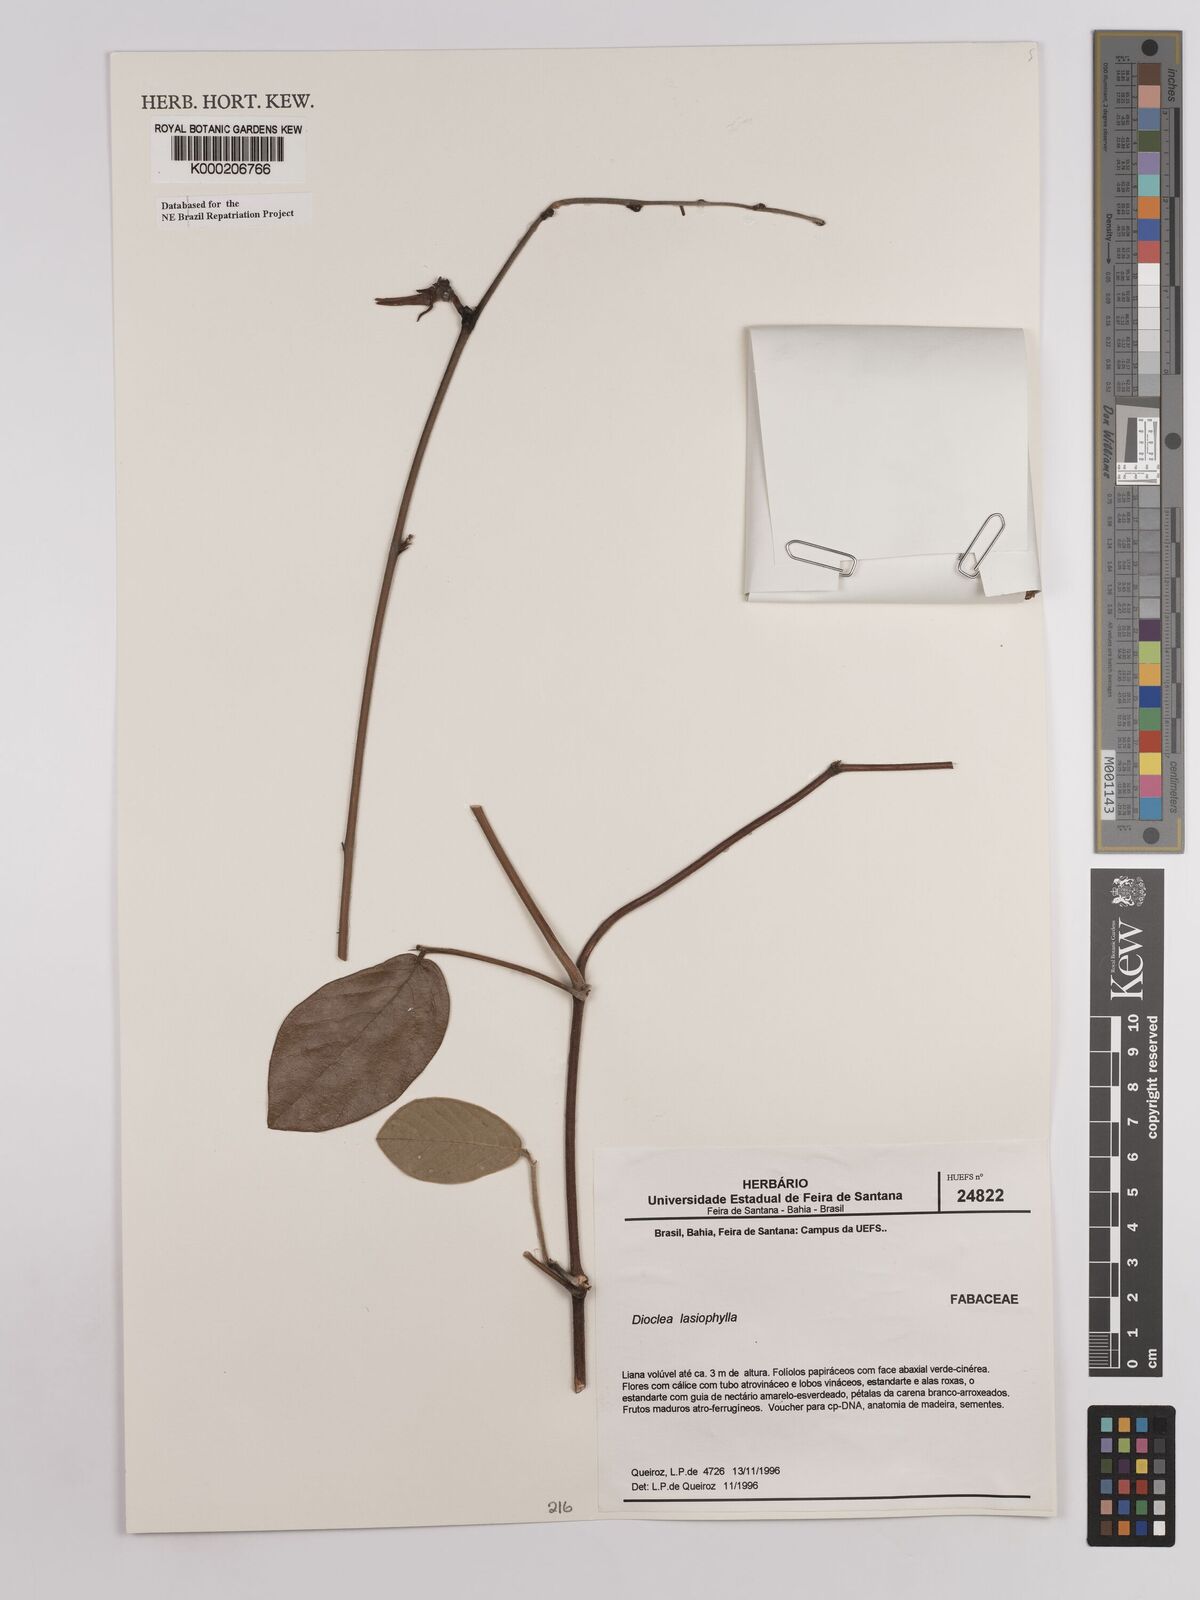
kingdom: Plantae
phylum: Tracheophyta
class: Magnoliopsida
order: Fabales
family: Fabaceae
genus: Dioclea
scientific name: Dioclea lasiophylla
